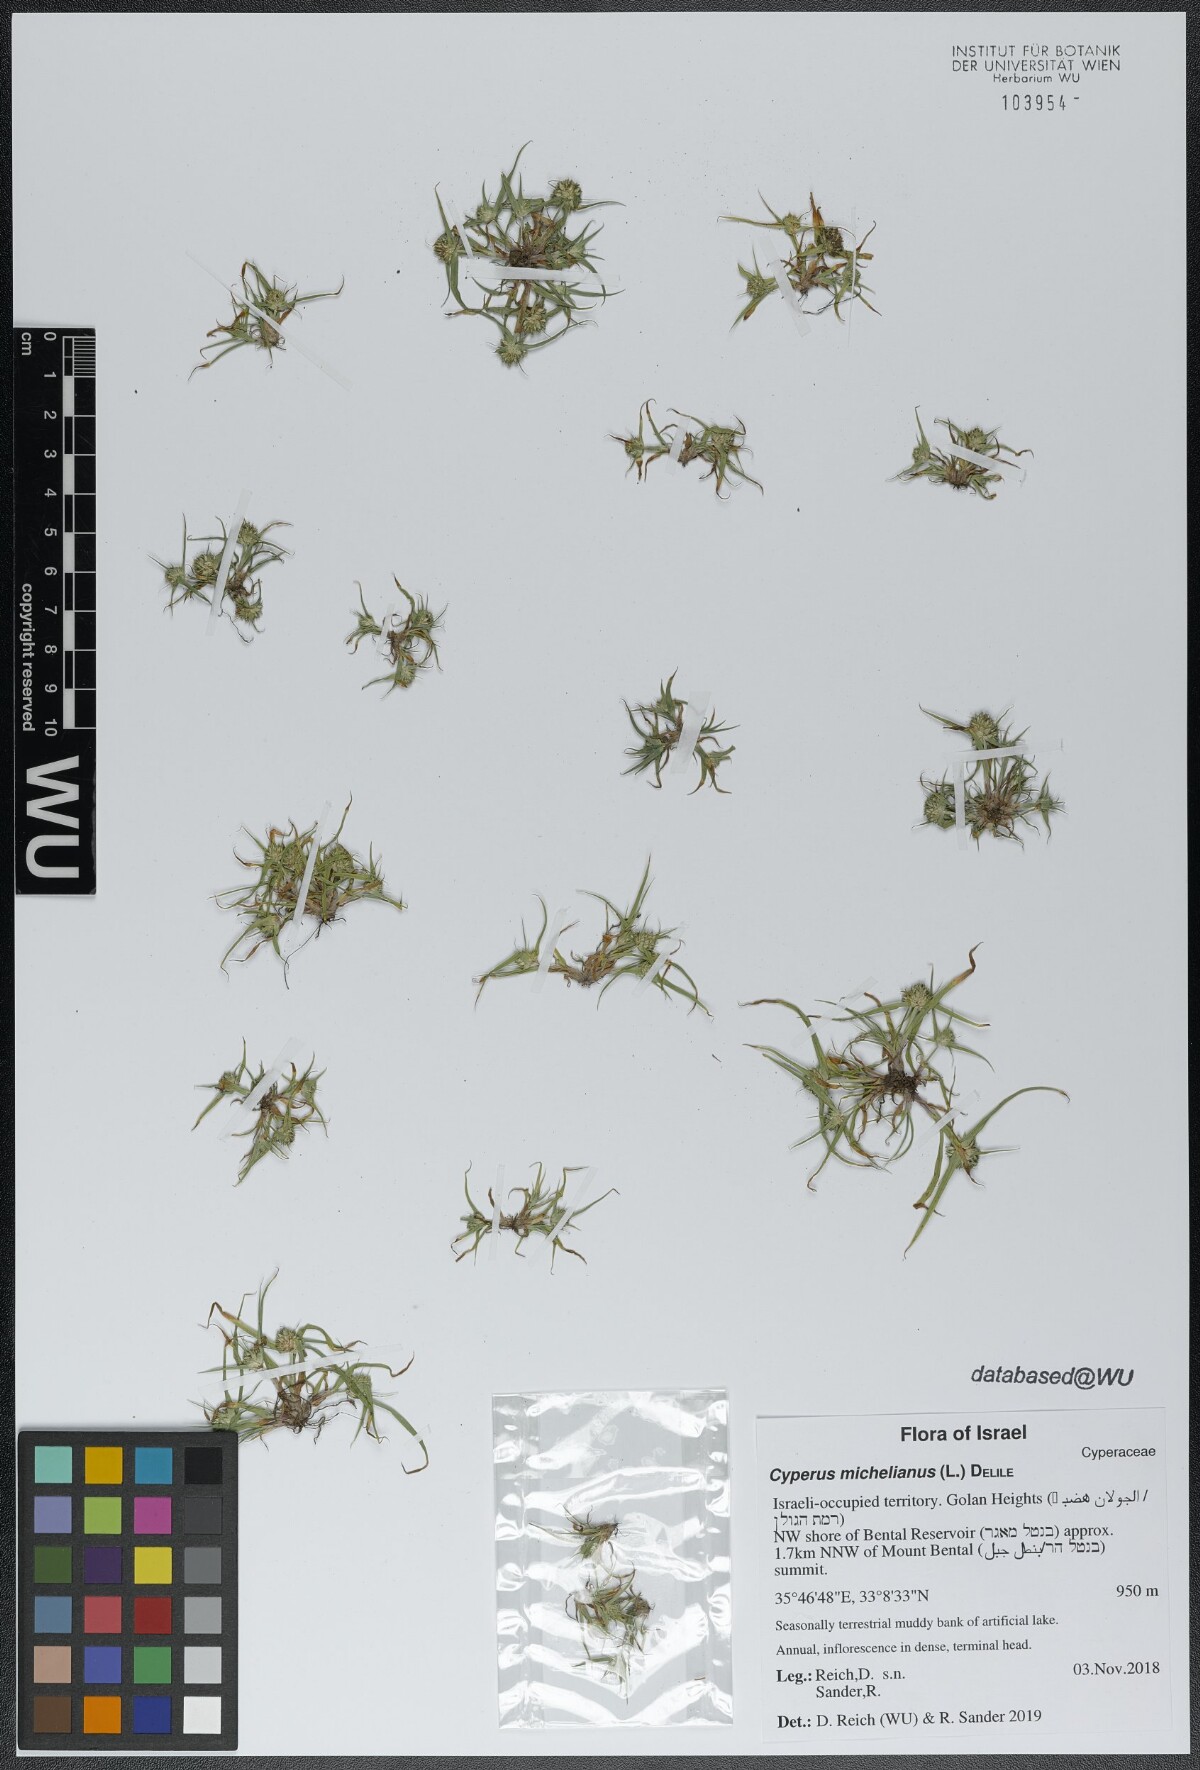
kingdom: Plantae
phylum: Tracheophyta
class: Liliopsida
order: Poales
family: Cyperaceae
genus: Cyperus
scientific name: Cyperus michelianus
